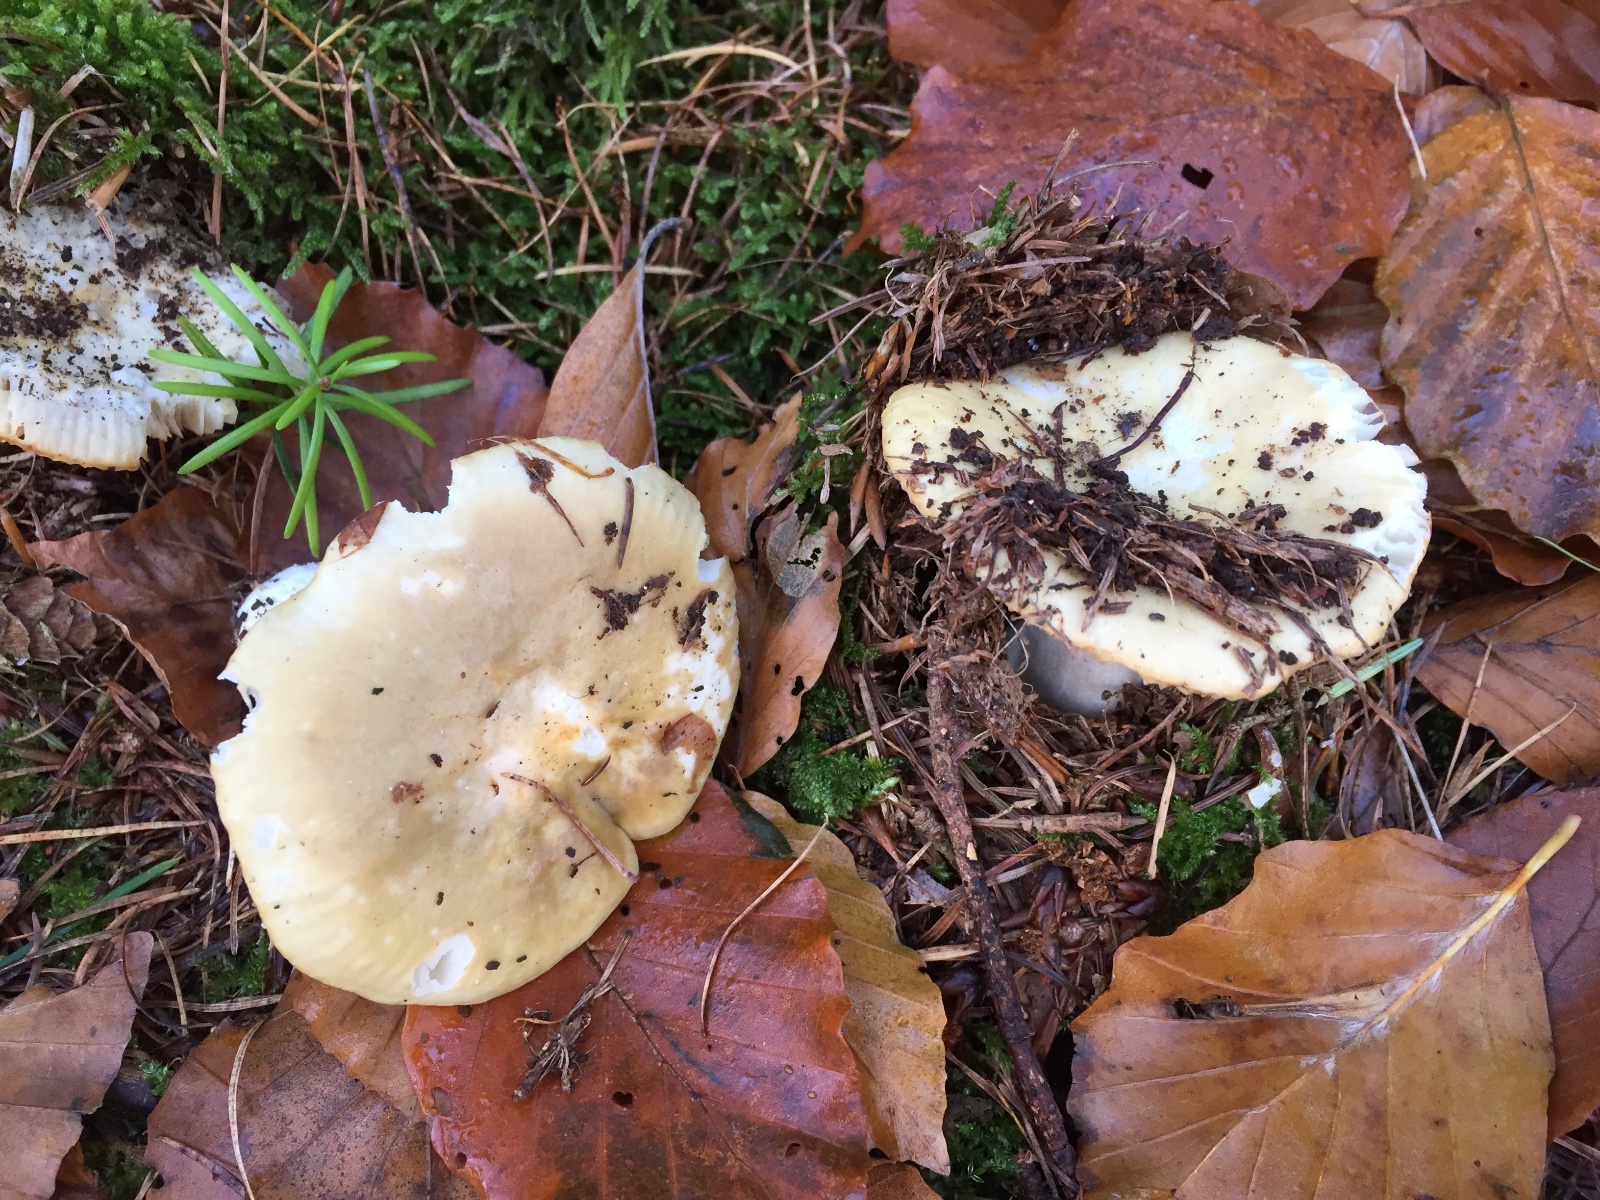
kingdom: Fungi
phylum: Basidiomycota
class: Agaricomycetes
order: Russulales
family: Russulaceae
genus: Russula
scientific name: Russula ochroleuca
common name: okkergul skørhat
